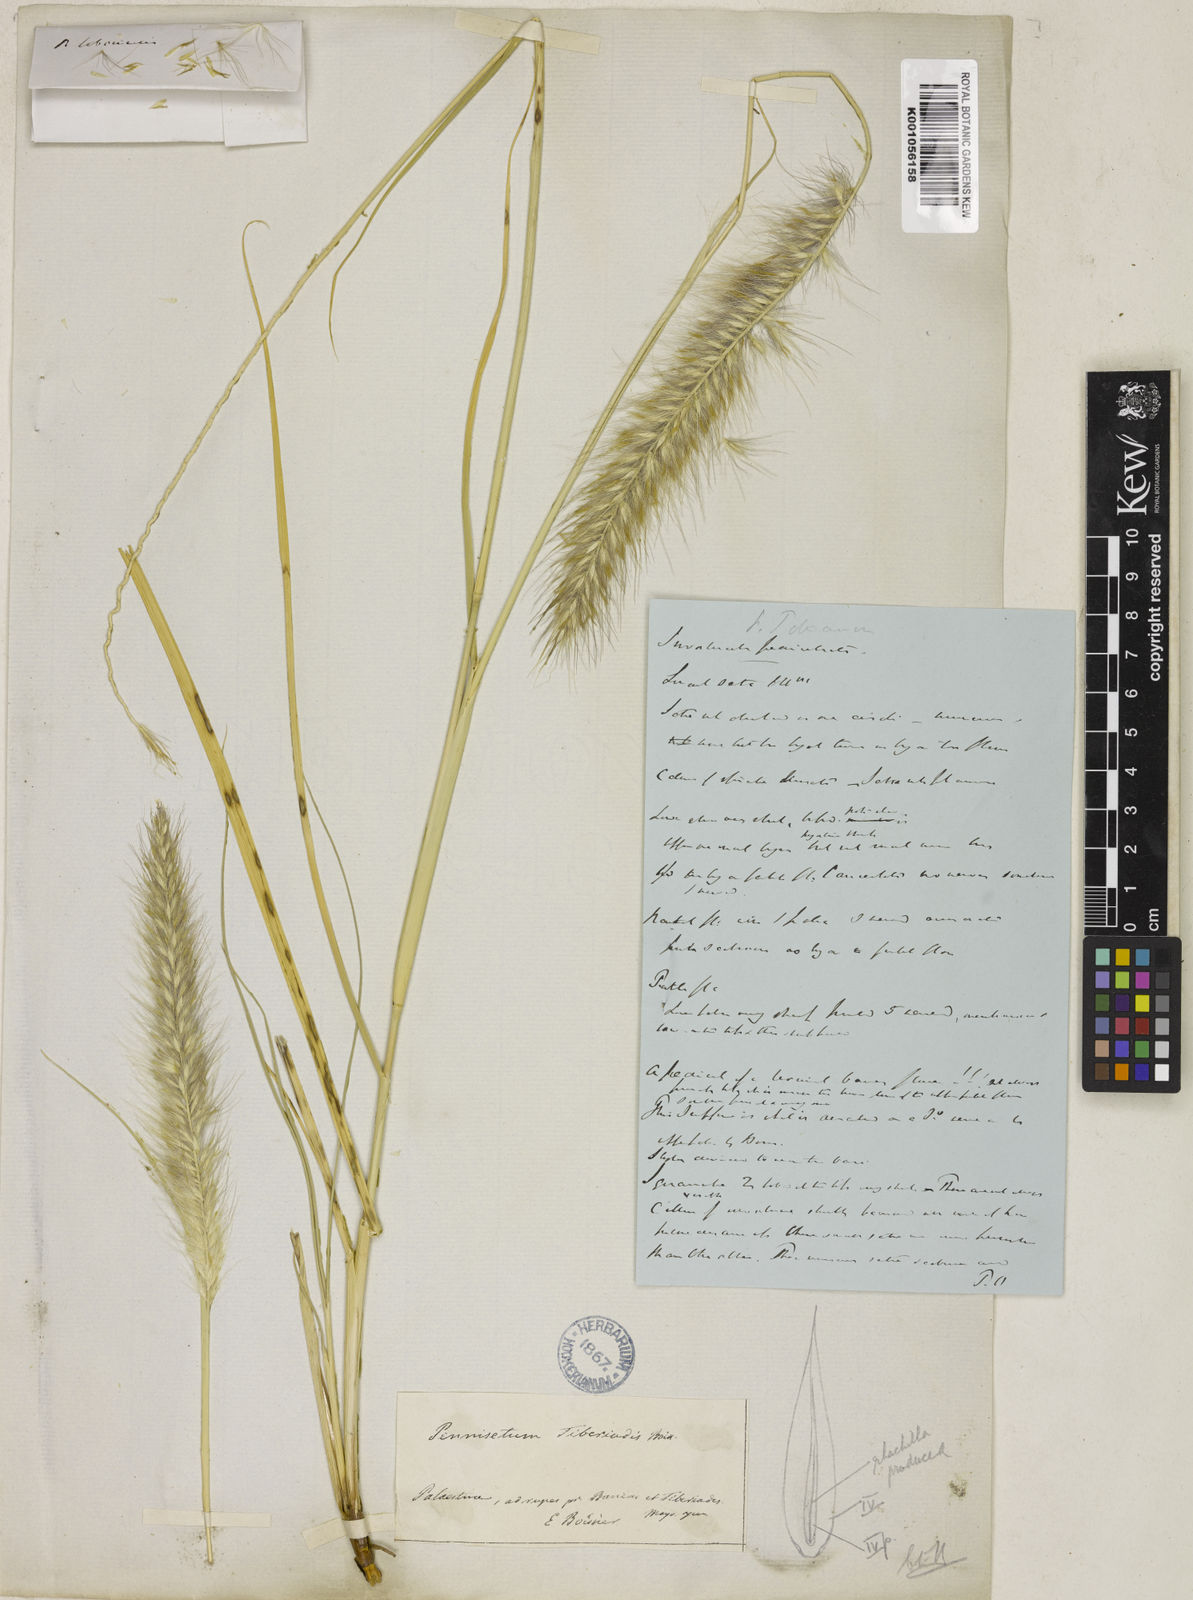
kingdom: Plantae
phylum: Tracheophyta
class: Liliopsida
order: Poales
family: Poaceae
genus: Cenchrus
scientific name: Cenchrus setaceus
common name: Crimson fountaingrass
